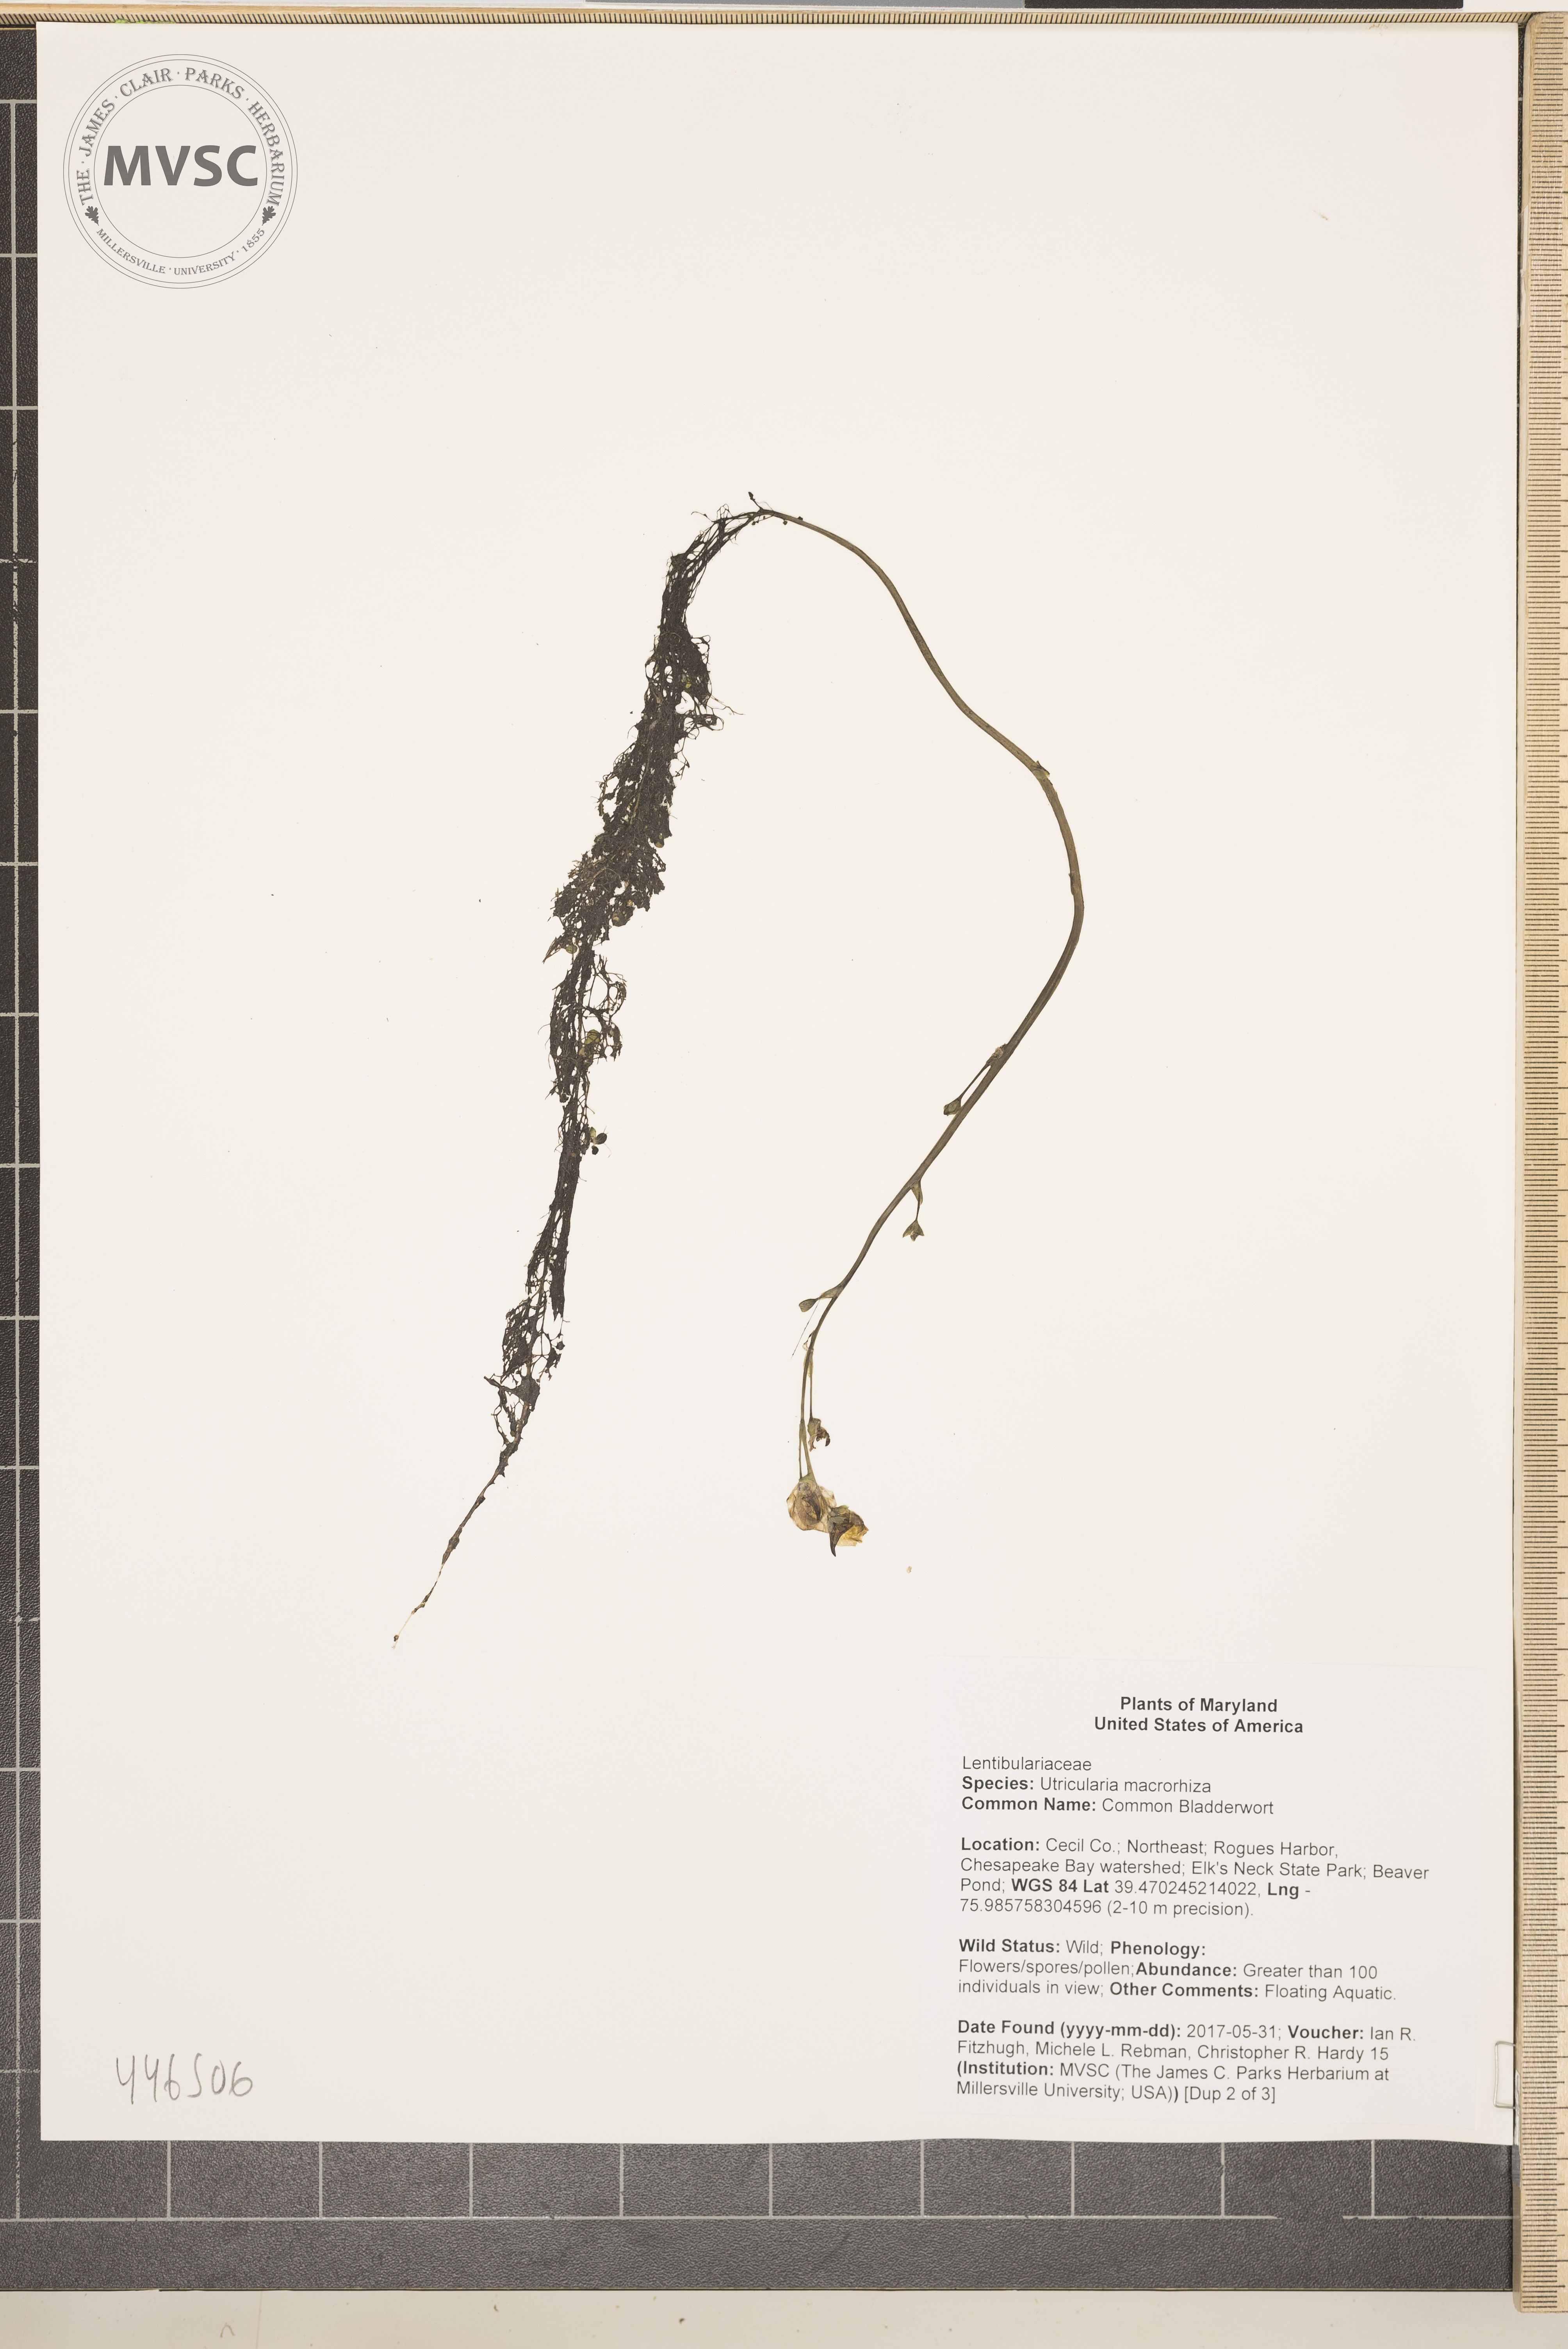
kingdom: Plantae
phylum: Tracheophyta
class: Magnoliopsida
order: Lamiales
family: Lentibulariaceae
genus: Utricularia
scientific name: Utricularia macrorhiza
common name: Common Bladderwort
